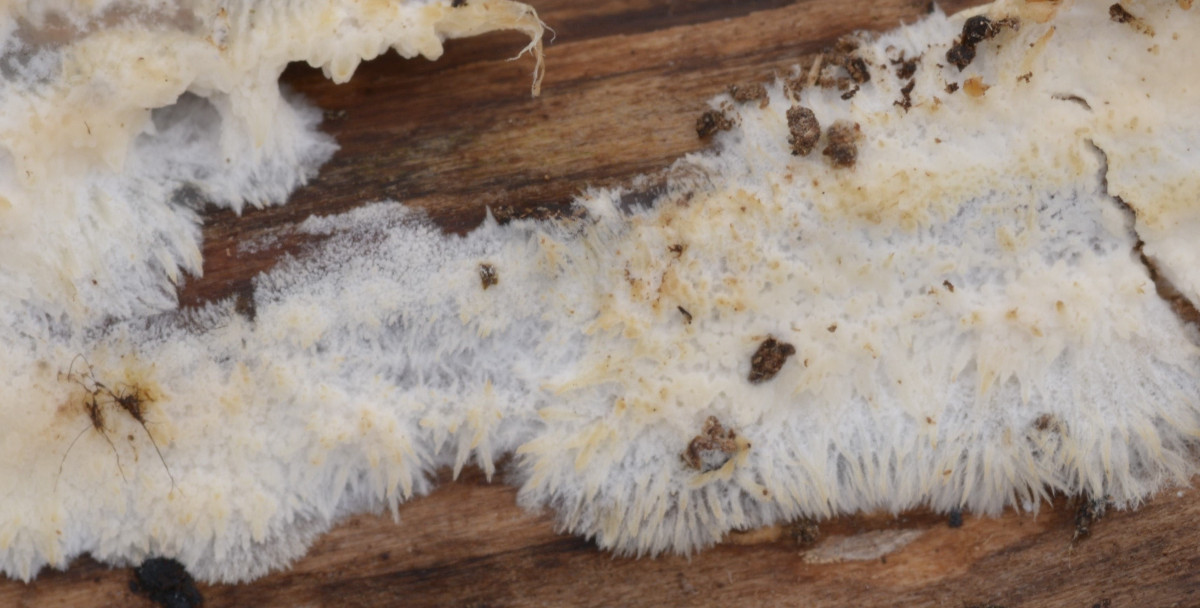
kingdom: Fungi
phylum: Basidiomycota
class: Agaricomycetes
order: Agaricales
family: Radulomycetaceae
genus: Radulomyces
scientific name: Radulomyces confluens
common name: glat naftalinskind
